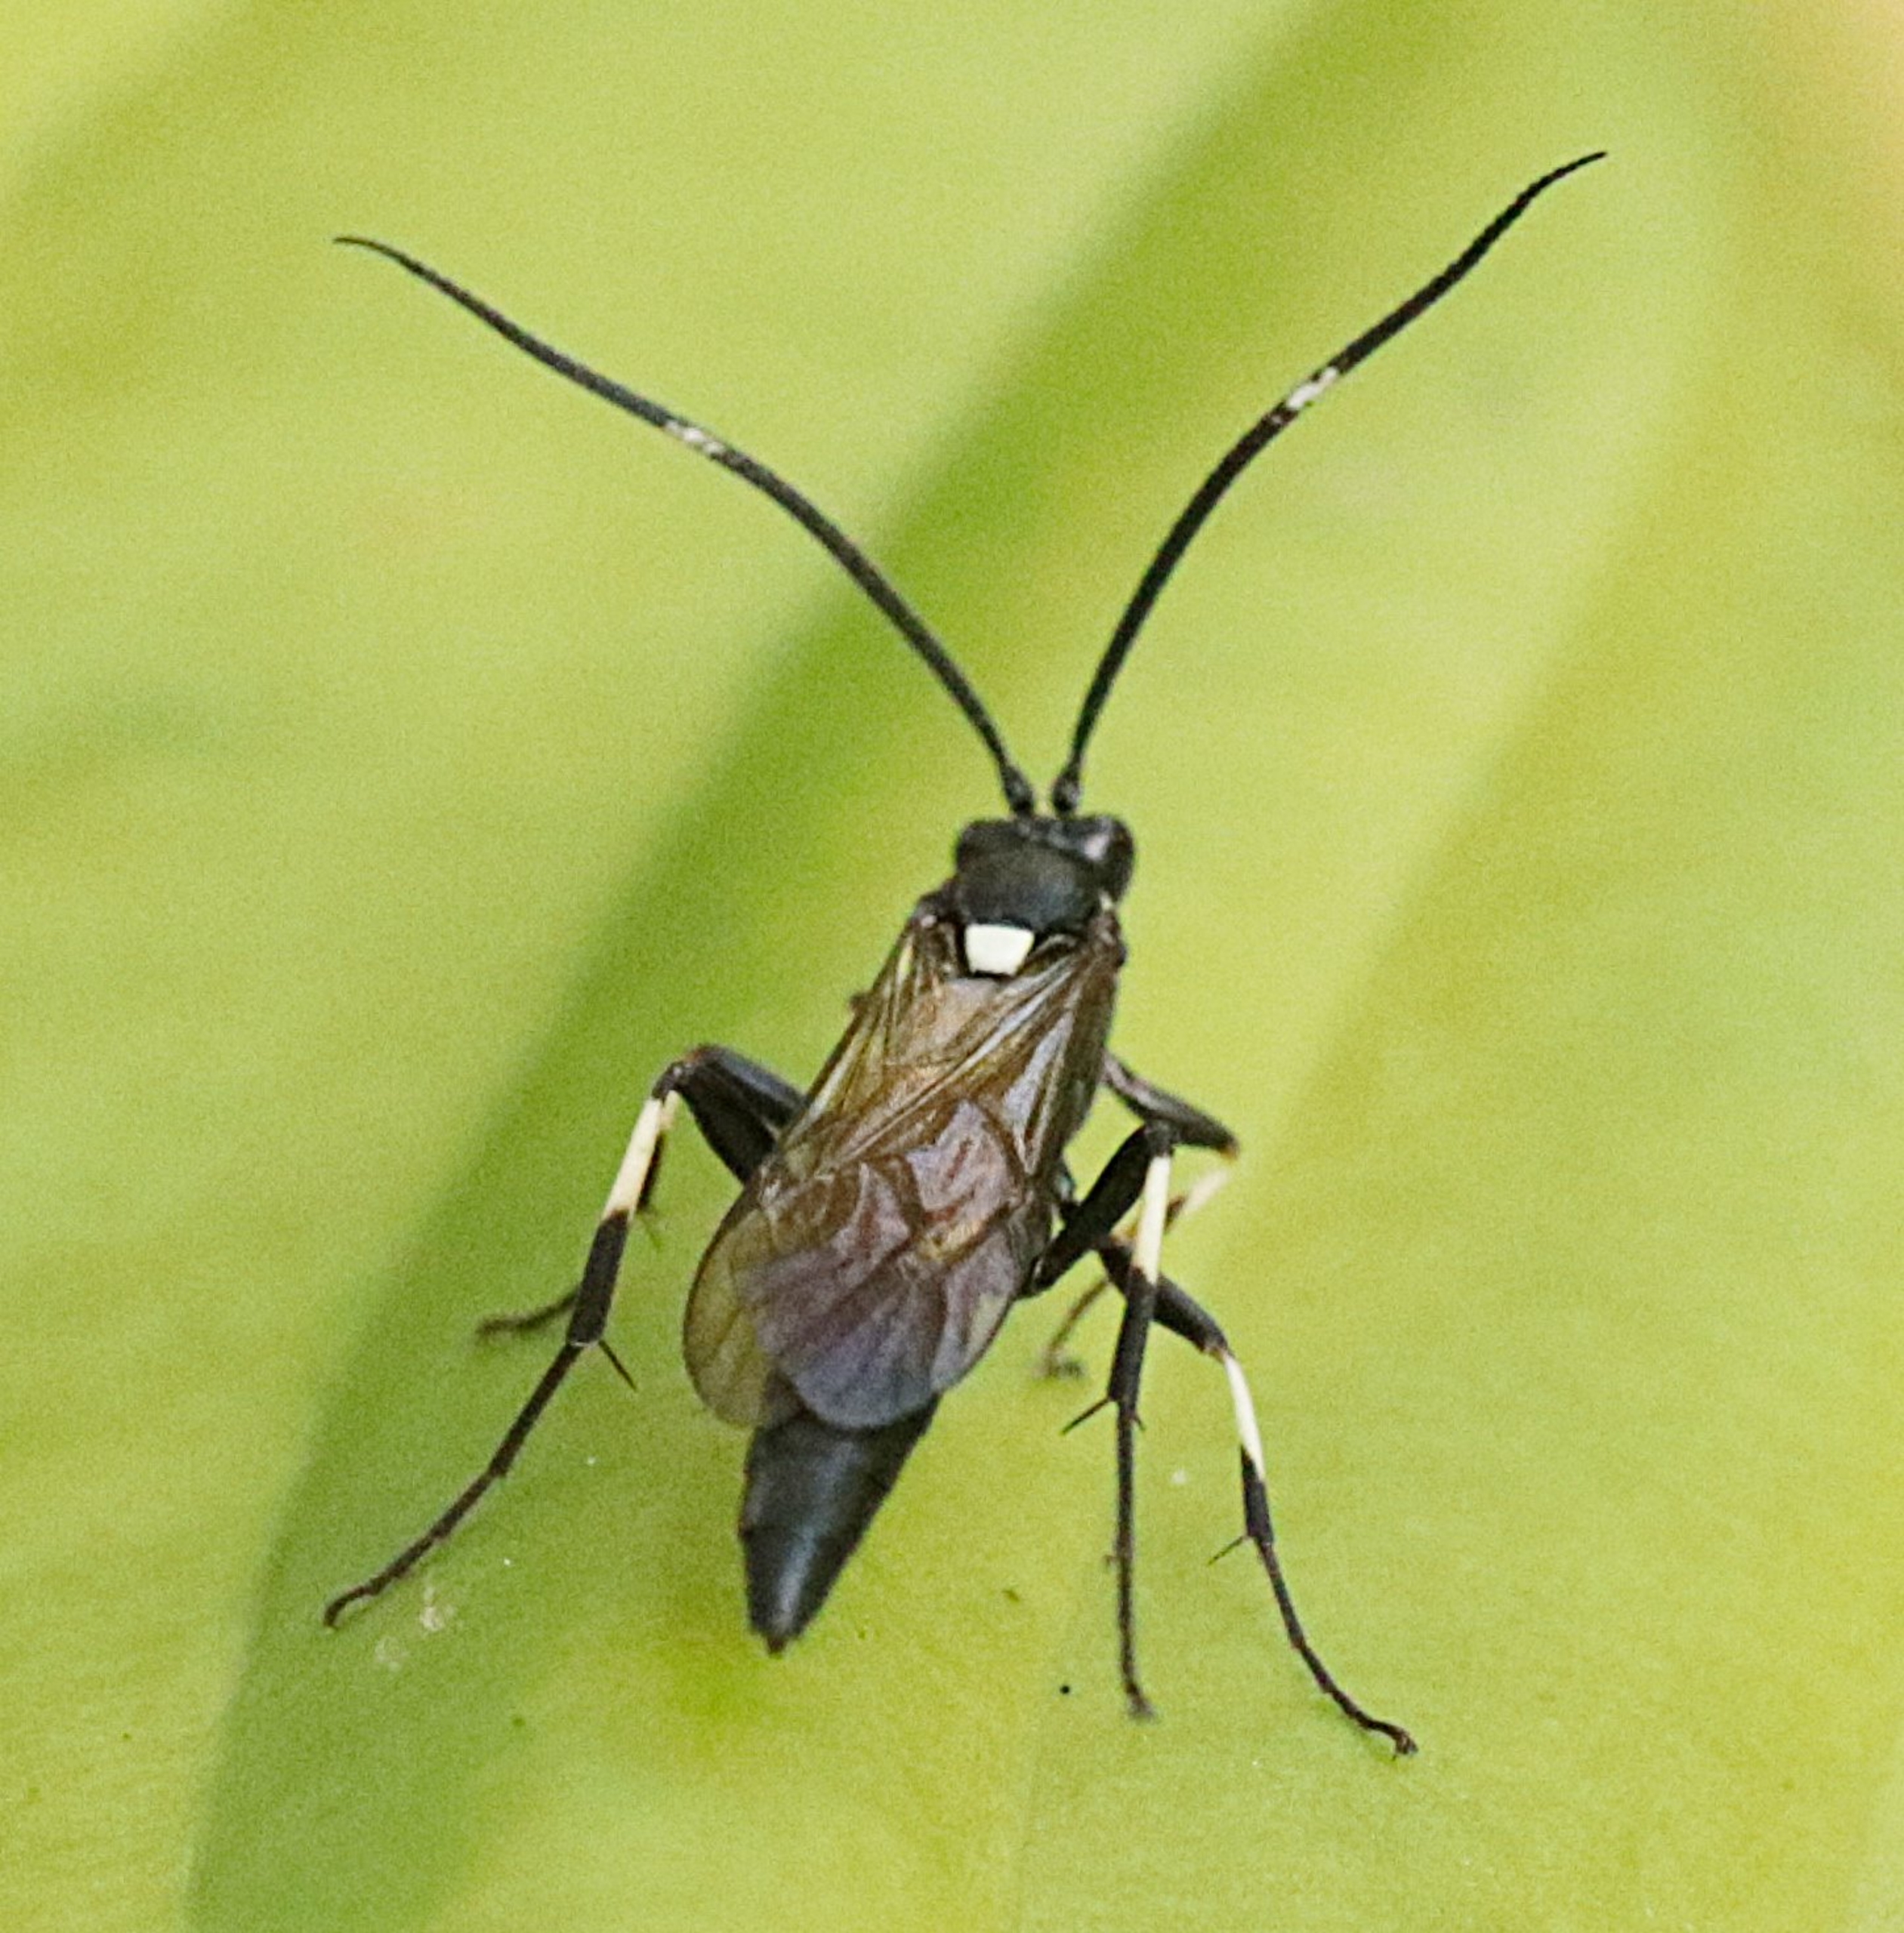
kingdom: Animalia
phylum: Arthropoda
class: Insecta
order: Hymenoptera
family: Ichneumonidae
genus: Stenichneumon
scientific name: Stenichneumon militarius
